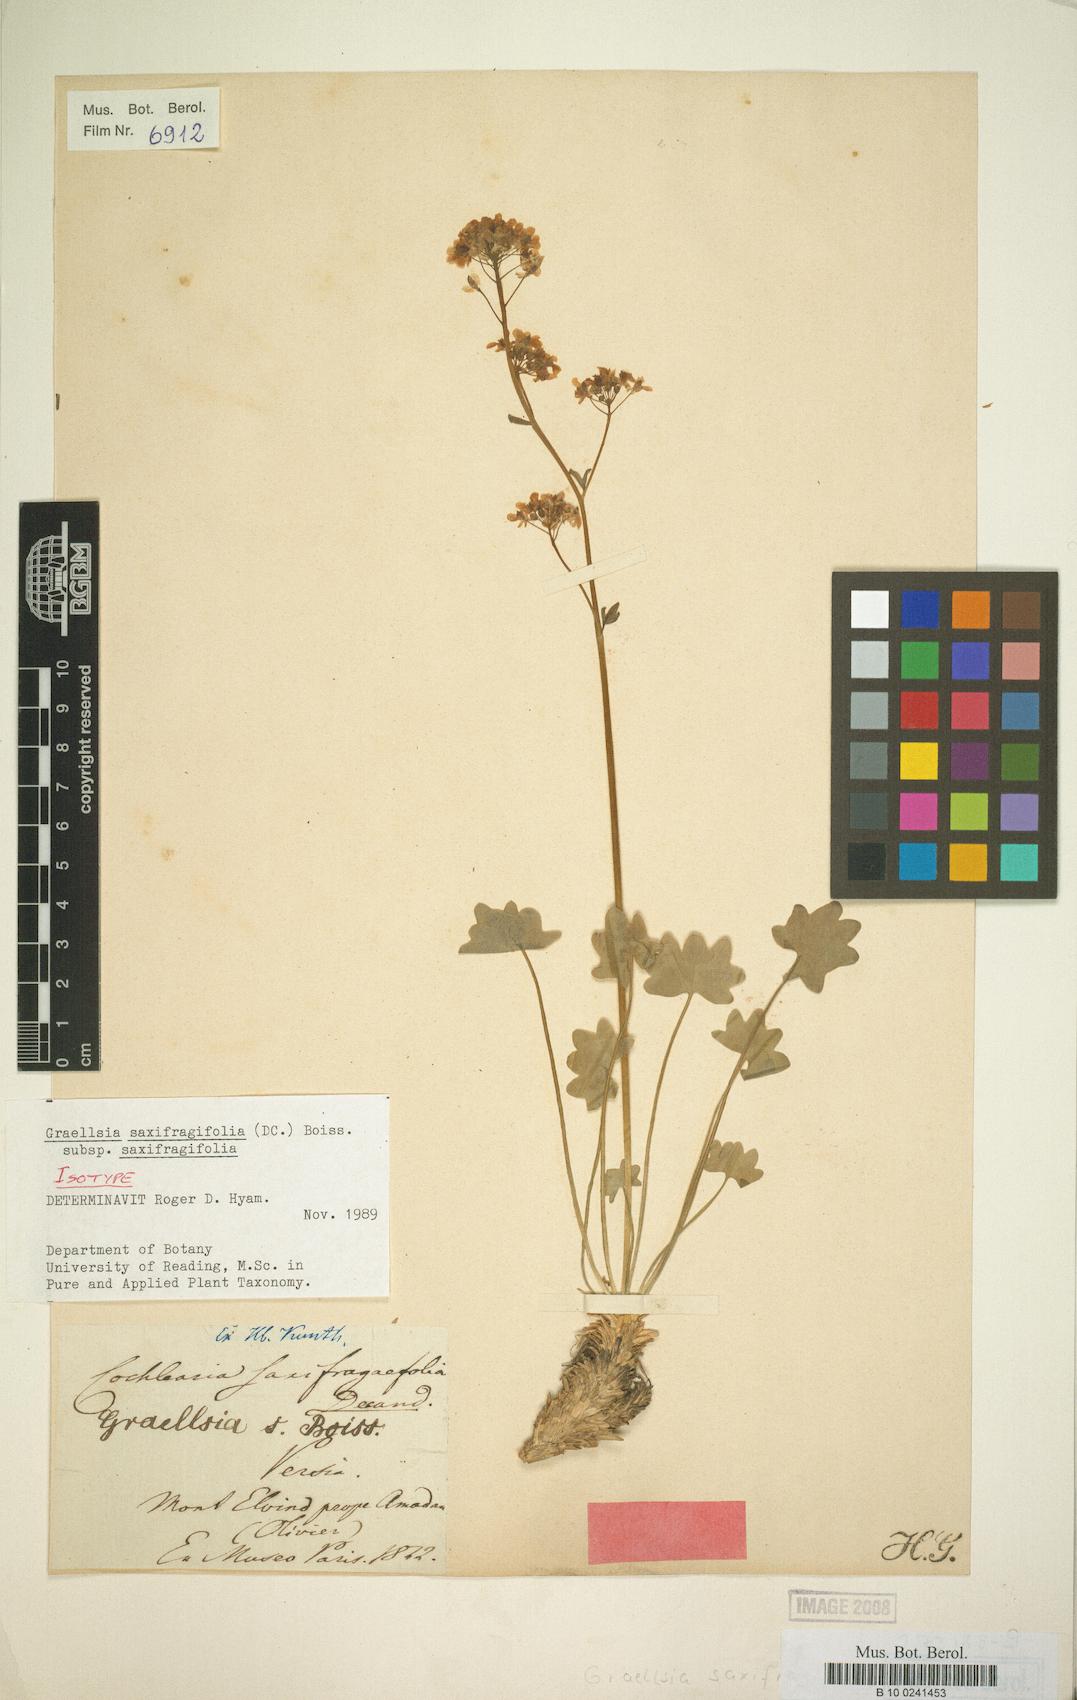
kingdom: Plantae
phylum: Tracheophyta
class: Magnoliopsida
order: Brassicales
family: Brassicaceae
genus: Graellsia
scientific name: Graellsia saxifragifolia
